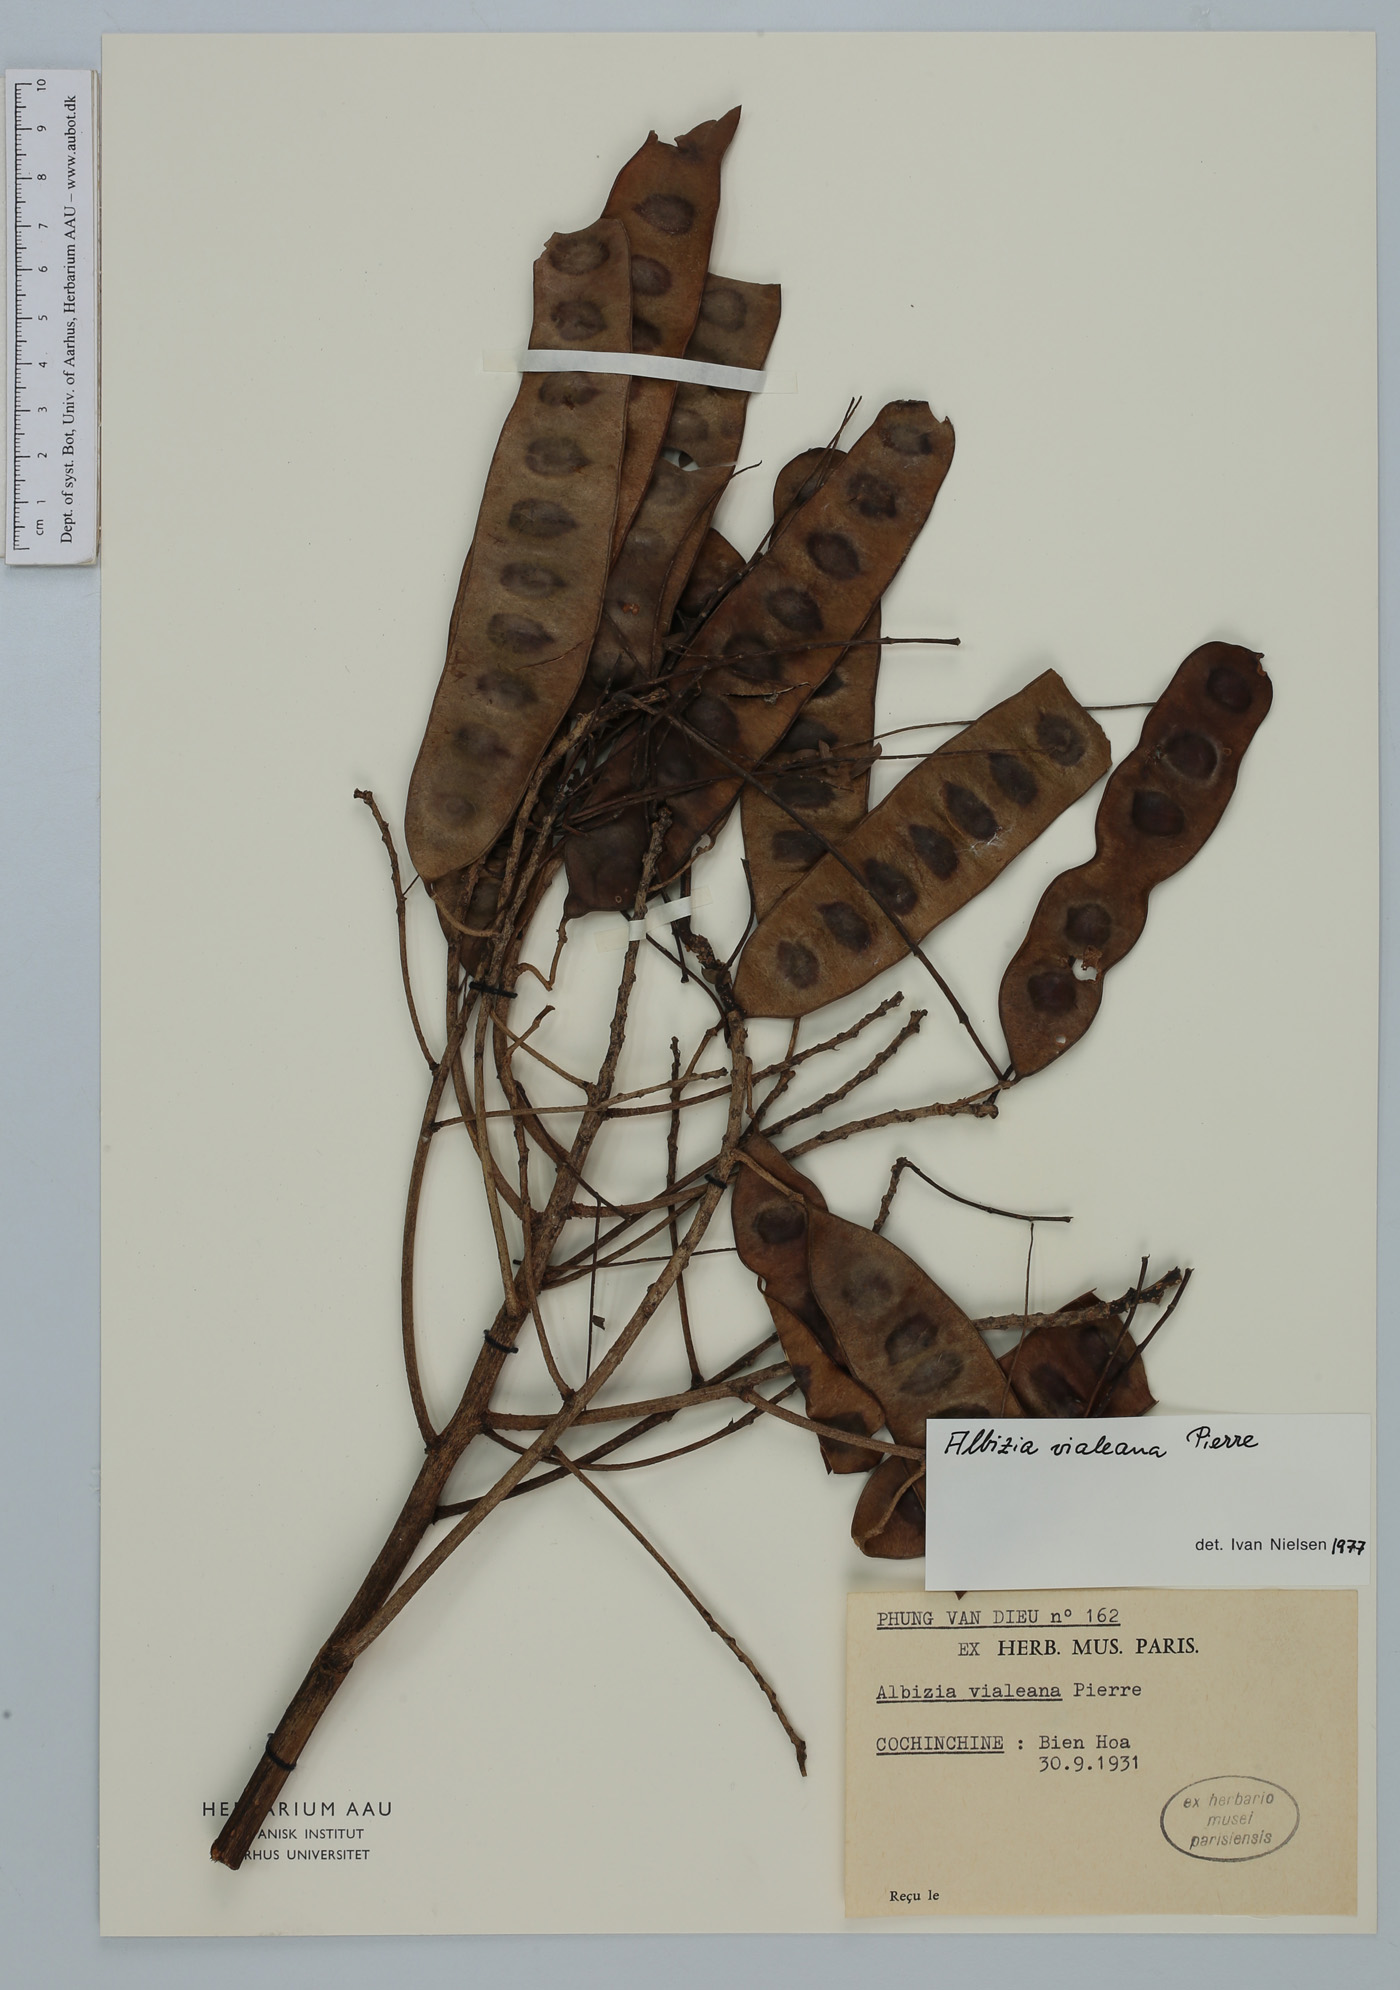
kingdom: Plantae
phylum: Tracheophyta
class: Magnoliopsida
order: Fabales
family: Fabaceae
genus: Albizia
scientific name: Albizia vialeana
